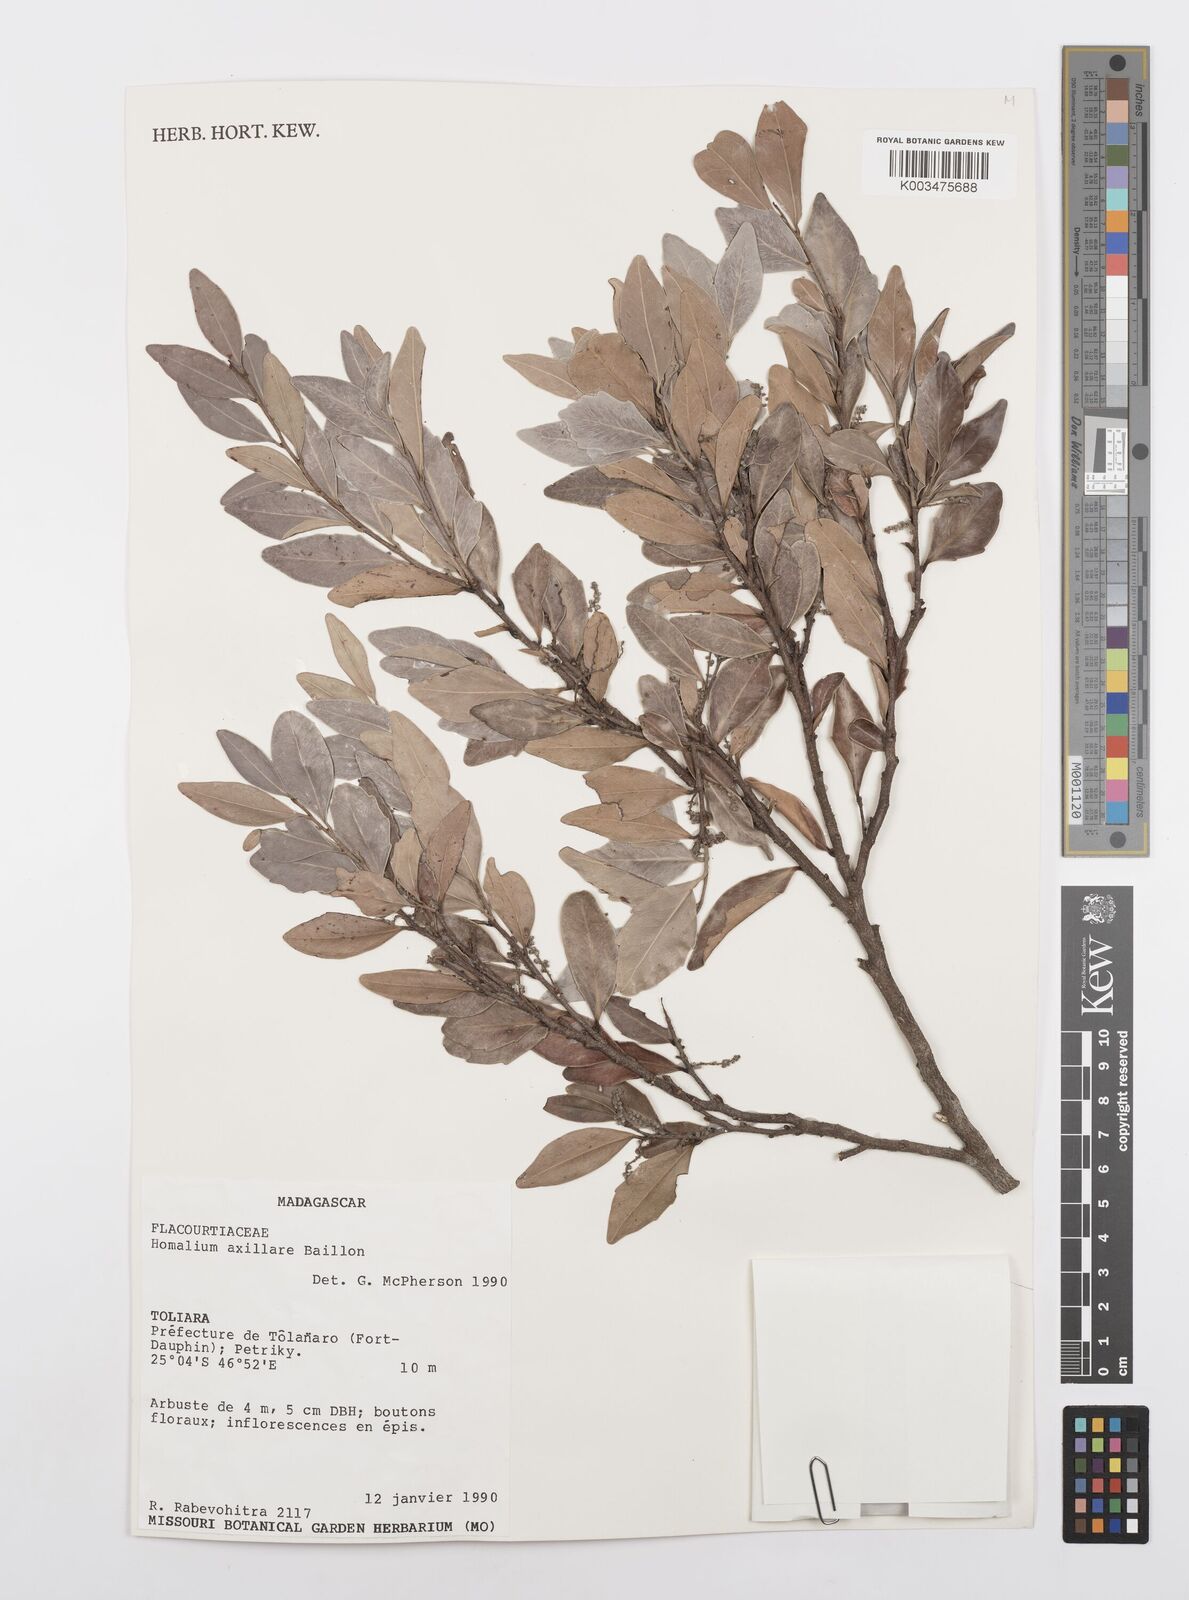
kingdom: Plantae
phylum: Tracheophyta
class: Magnoliopsida
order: Malpighiales
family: Salicaceae
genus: Homalium
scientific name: Homalium axillare
